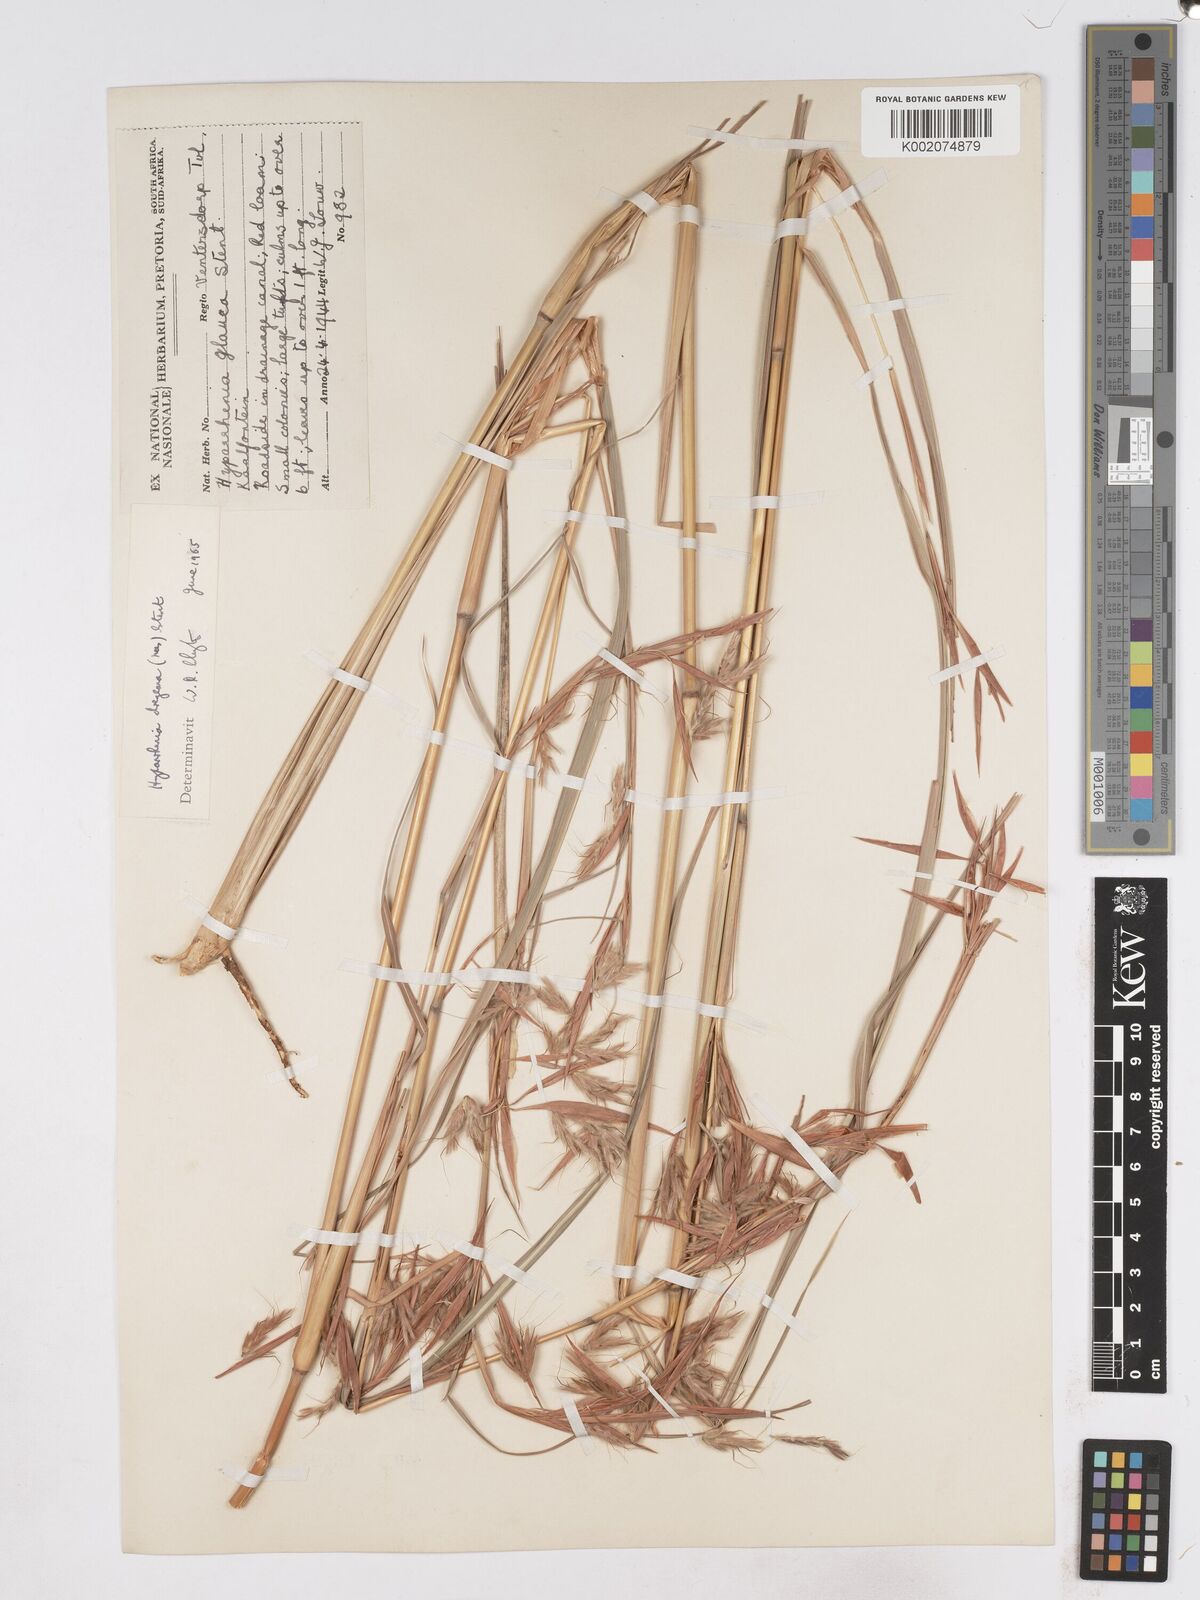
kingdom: Plantae
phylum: Tracheophyta
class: Liliopsida
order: Poales
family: Poaceae
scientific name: Poaceae
